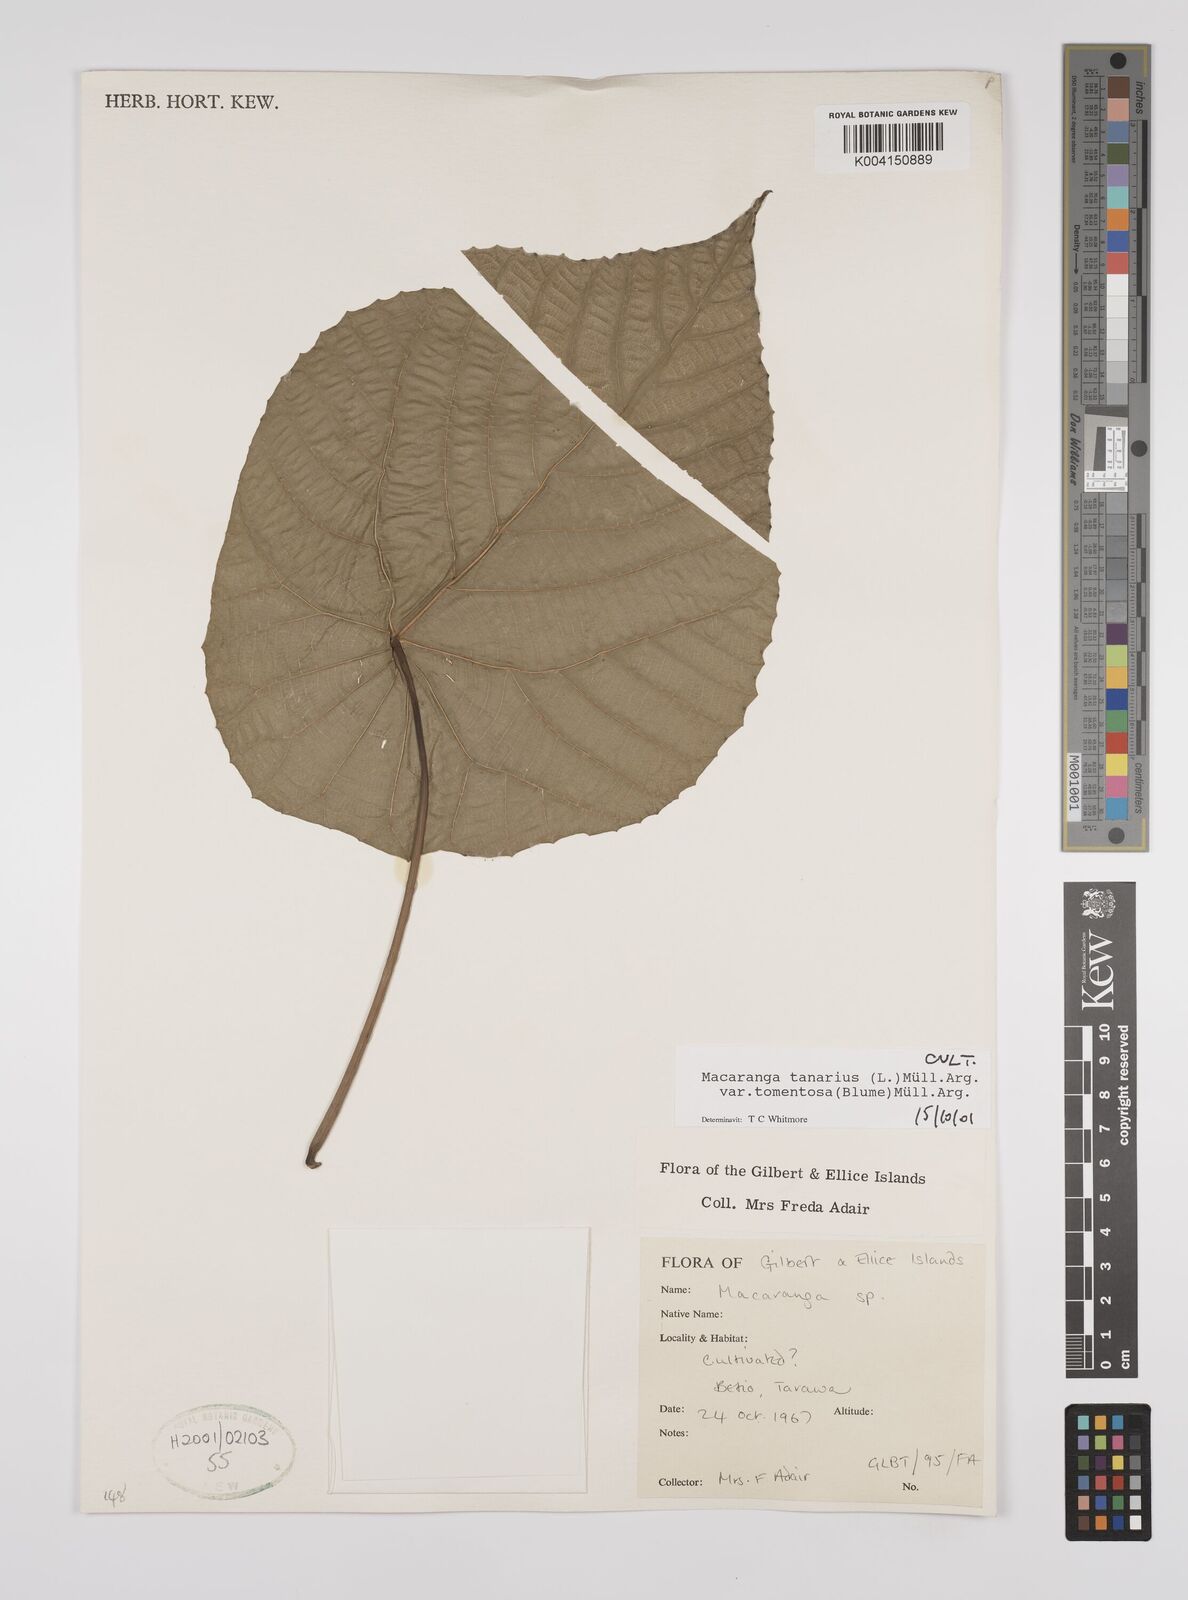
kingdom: Plantae
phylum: Tracheophyta
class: Magnoliopsida
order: Malpighiales
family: Euphorbiaceae
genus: Macaranga
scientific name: Macaranga tanarius
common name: Parasol leaf tree
